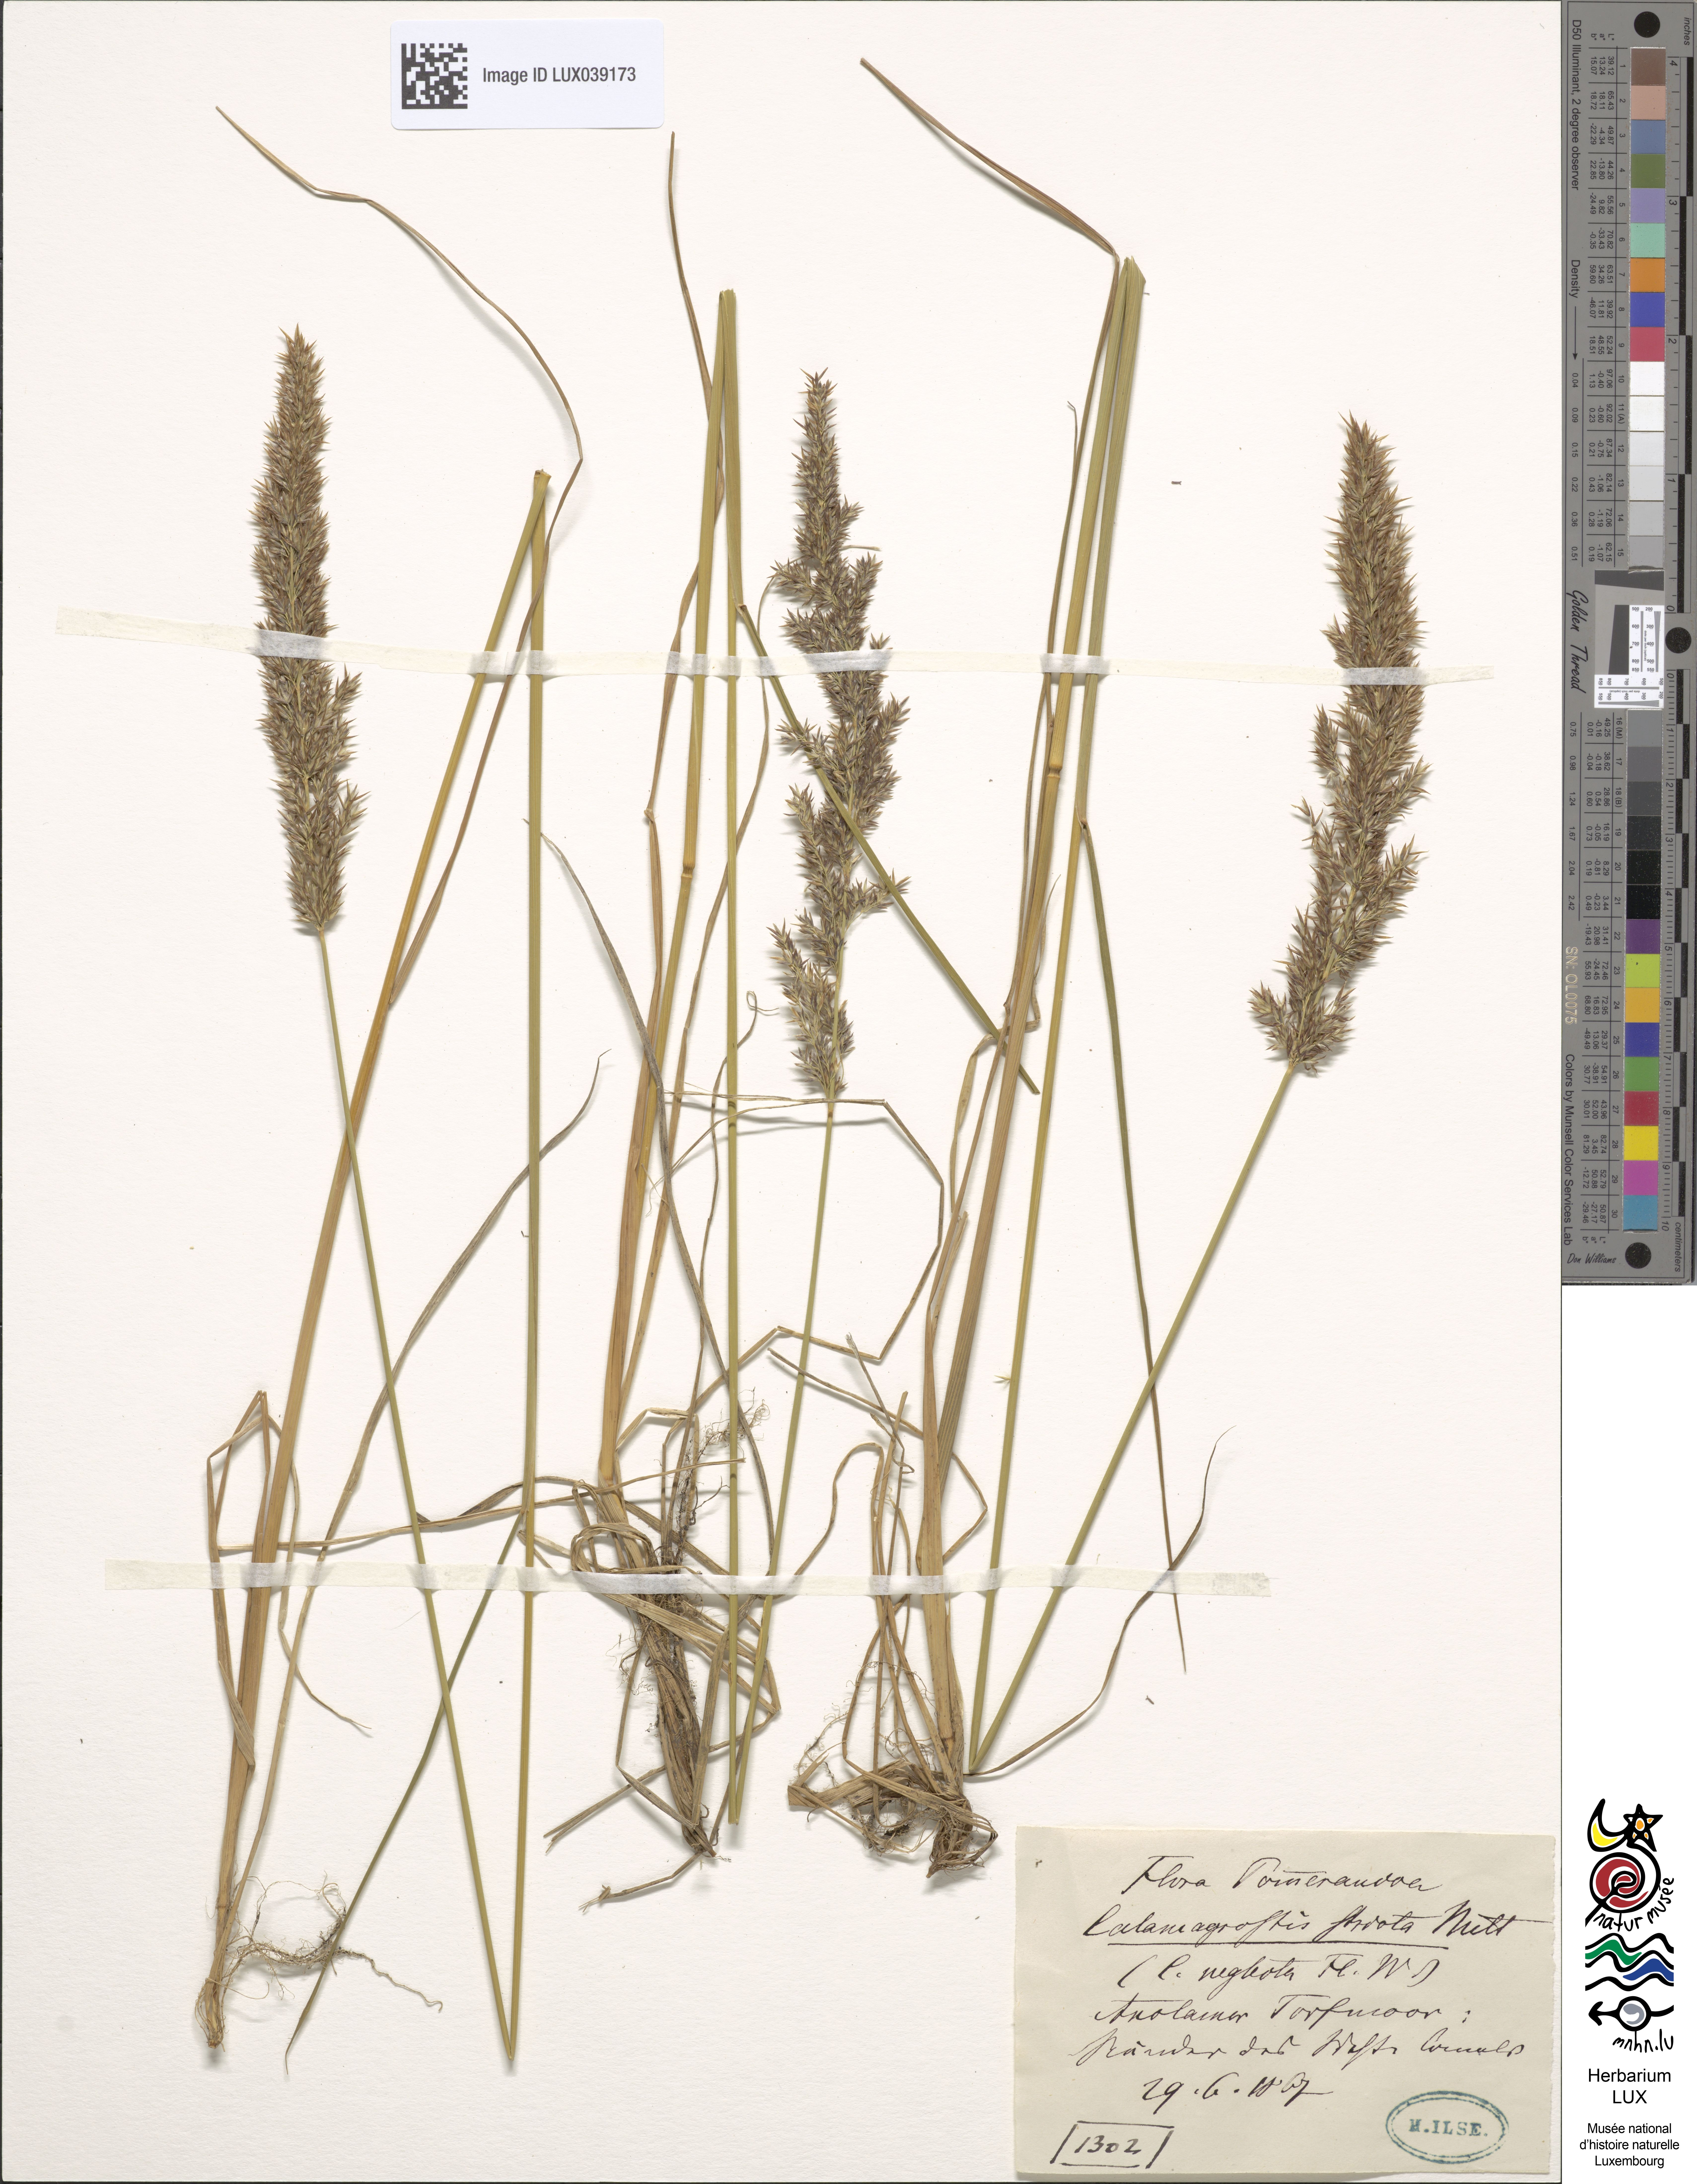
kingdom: Plantae
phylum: Tracheophyta
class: Liliopsida
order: Poales
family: Poaceae
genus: Calamagrostis
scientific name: Calamagrostis stricta
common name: Narrow small-reed
